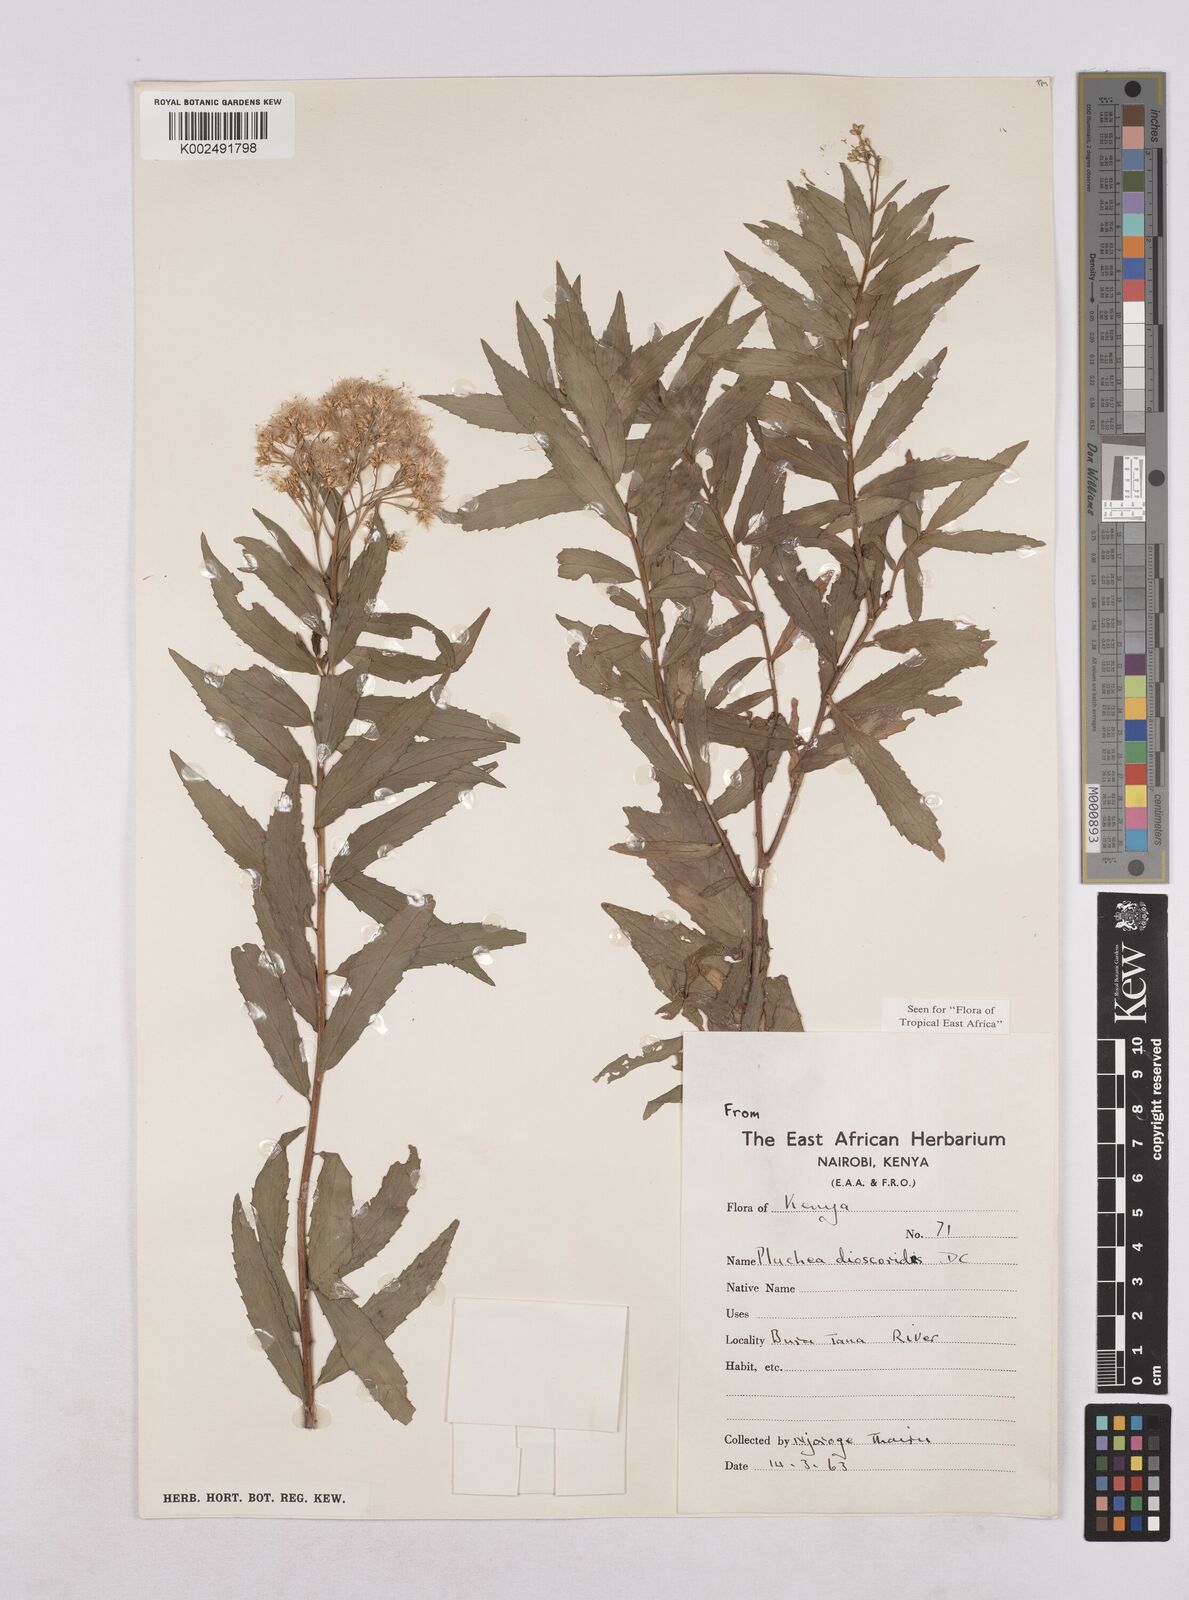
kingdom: Plantae
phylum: Tracheophyta
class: Magnoliopsida
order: Asterales
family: Asteraceae
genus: Pluchea
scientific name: Pluchea dioscoridis
